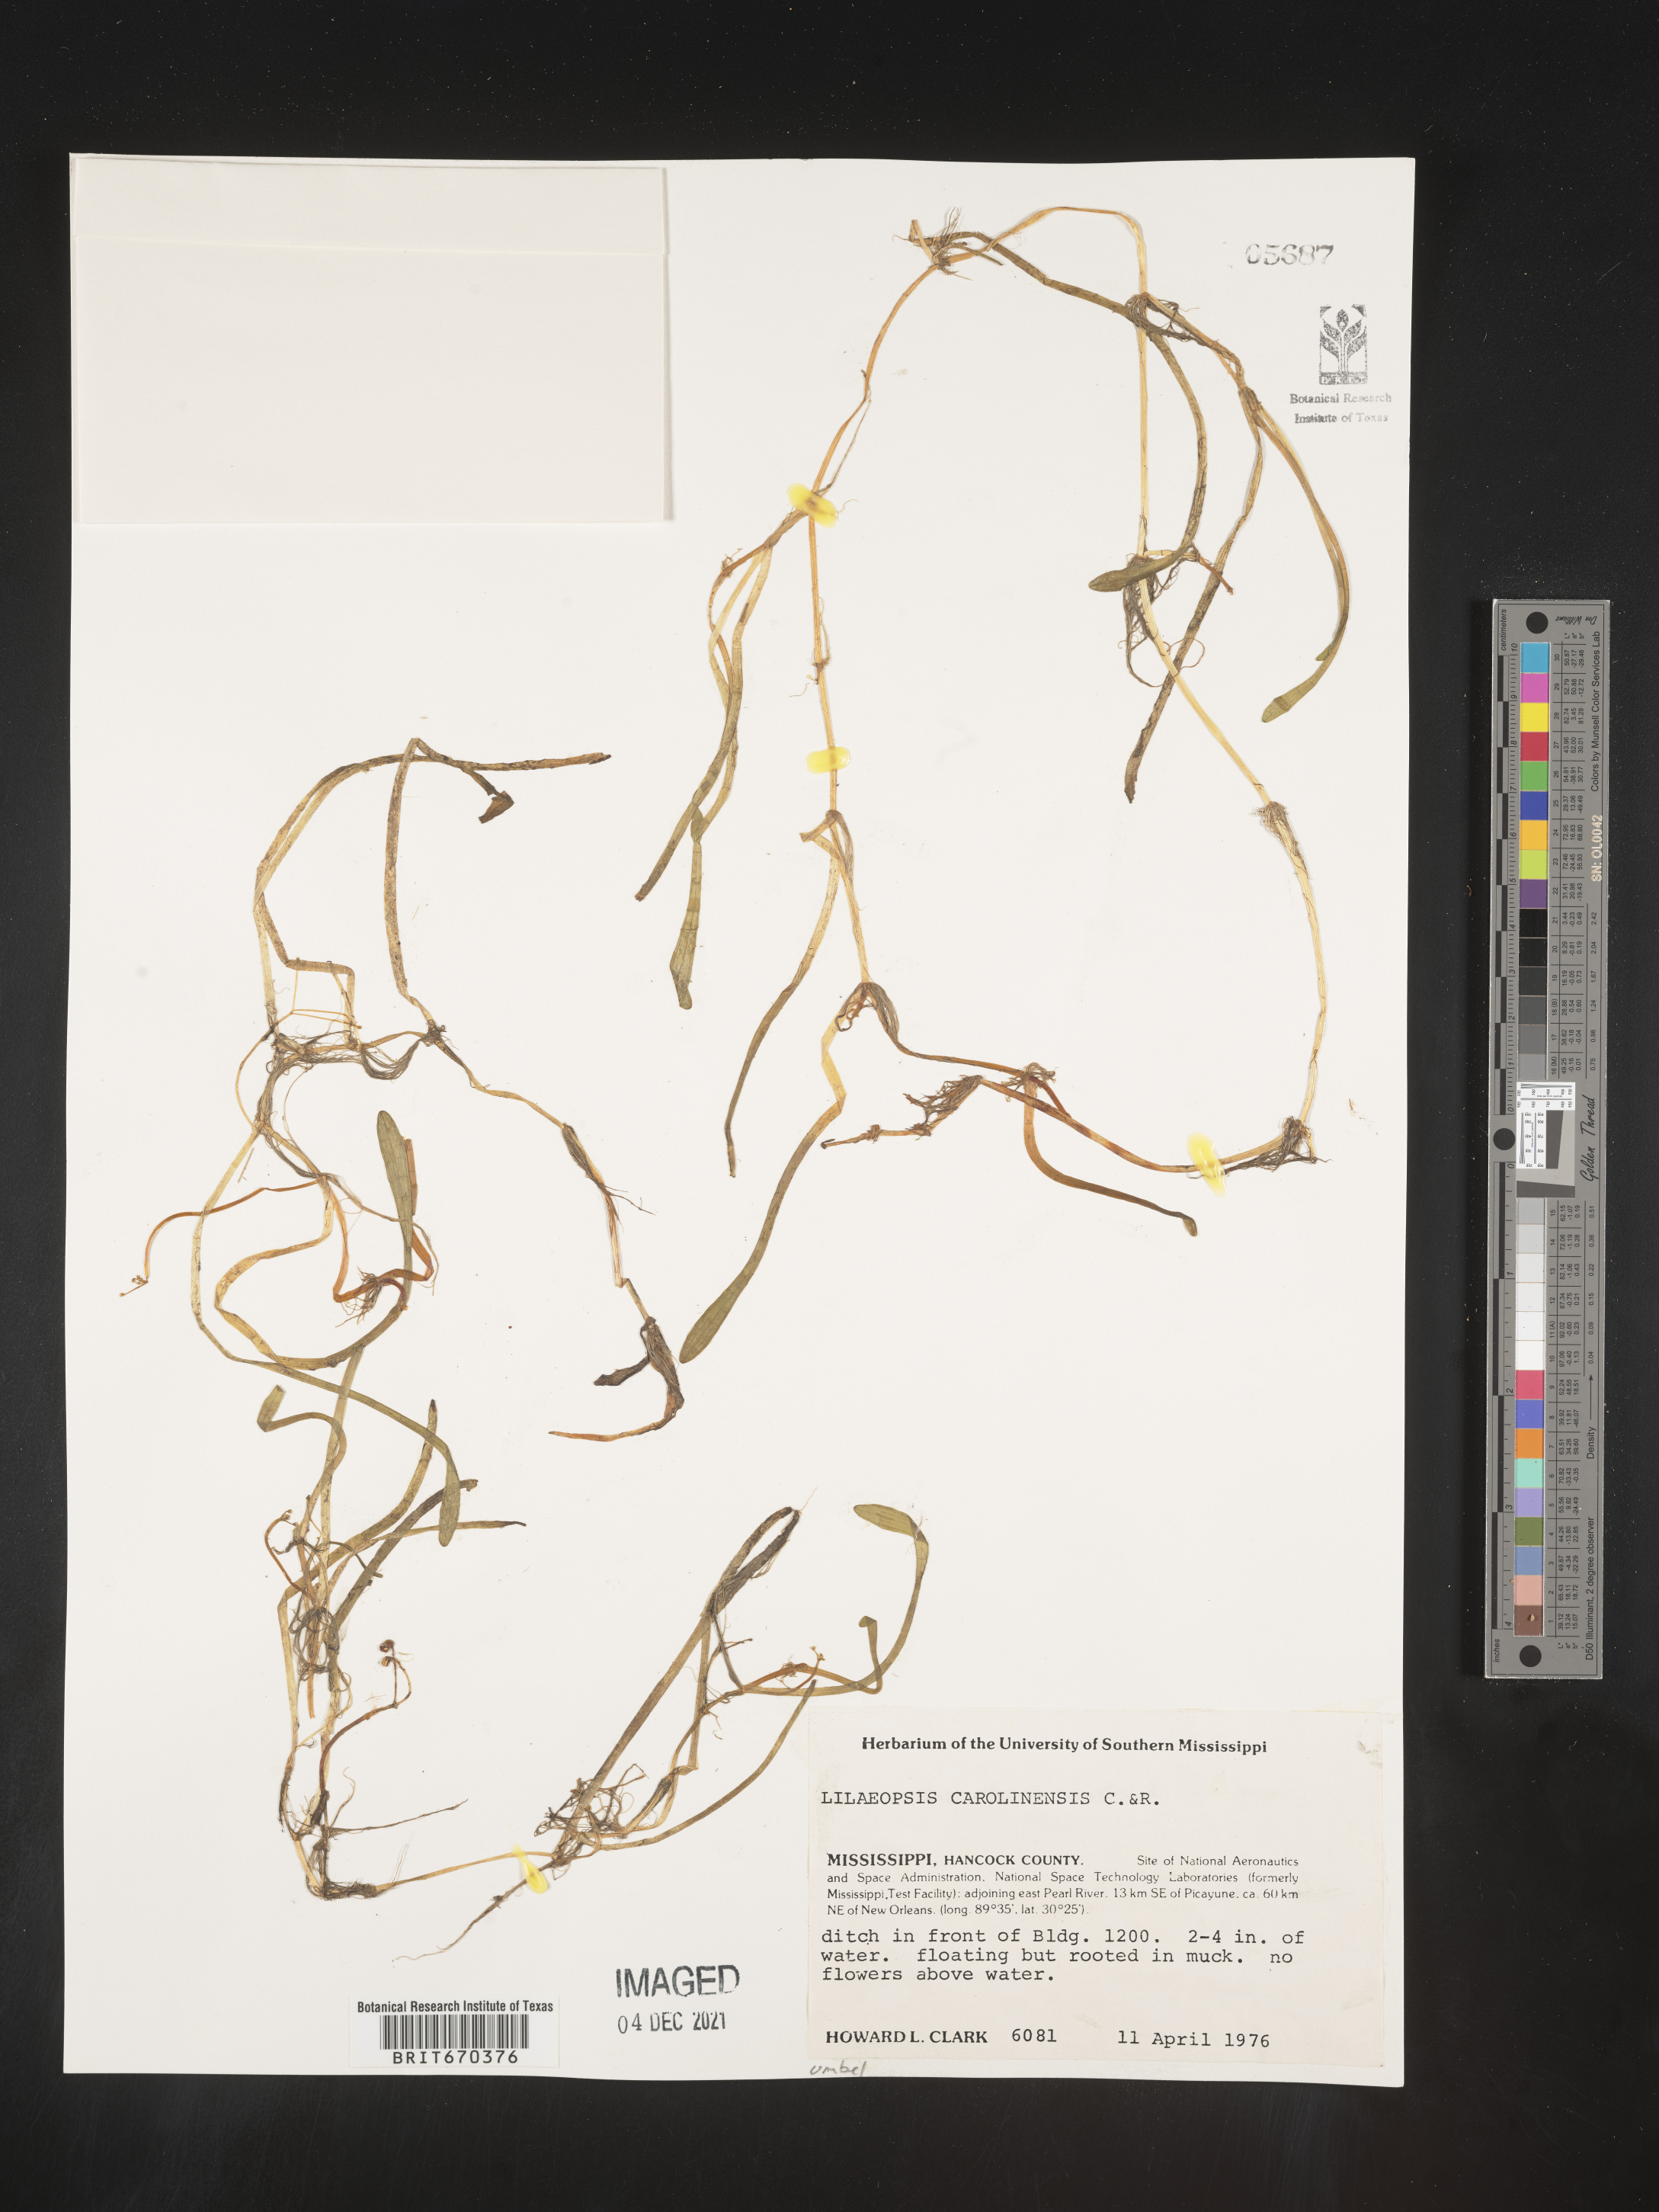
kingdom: Plantae
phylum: Tracheophyta
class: Magnoliopsida
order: Apiales
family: Apiaceae
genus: Lilaeopsis
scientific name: Lilaeopsis
